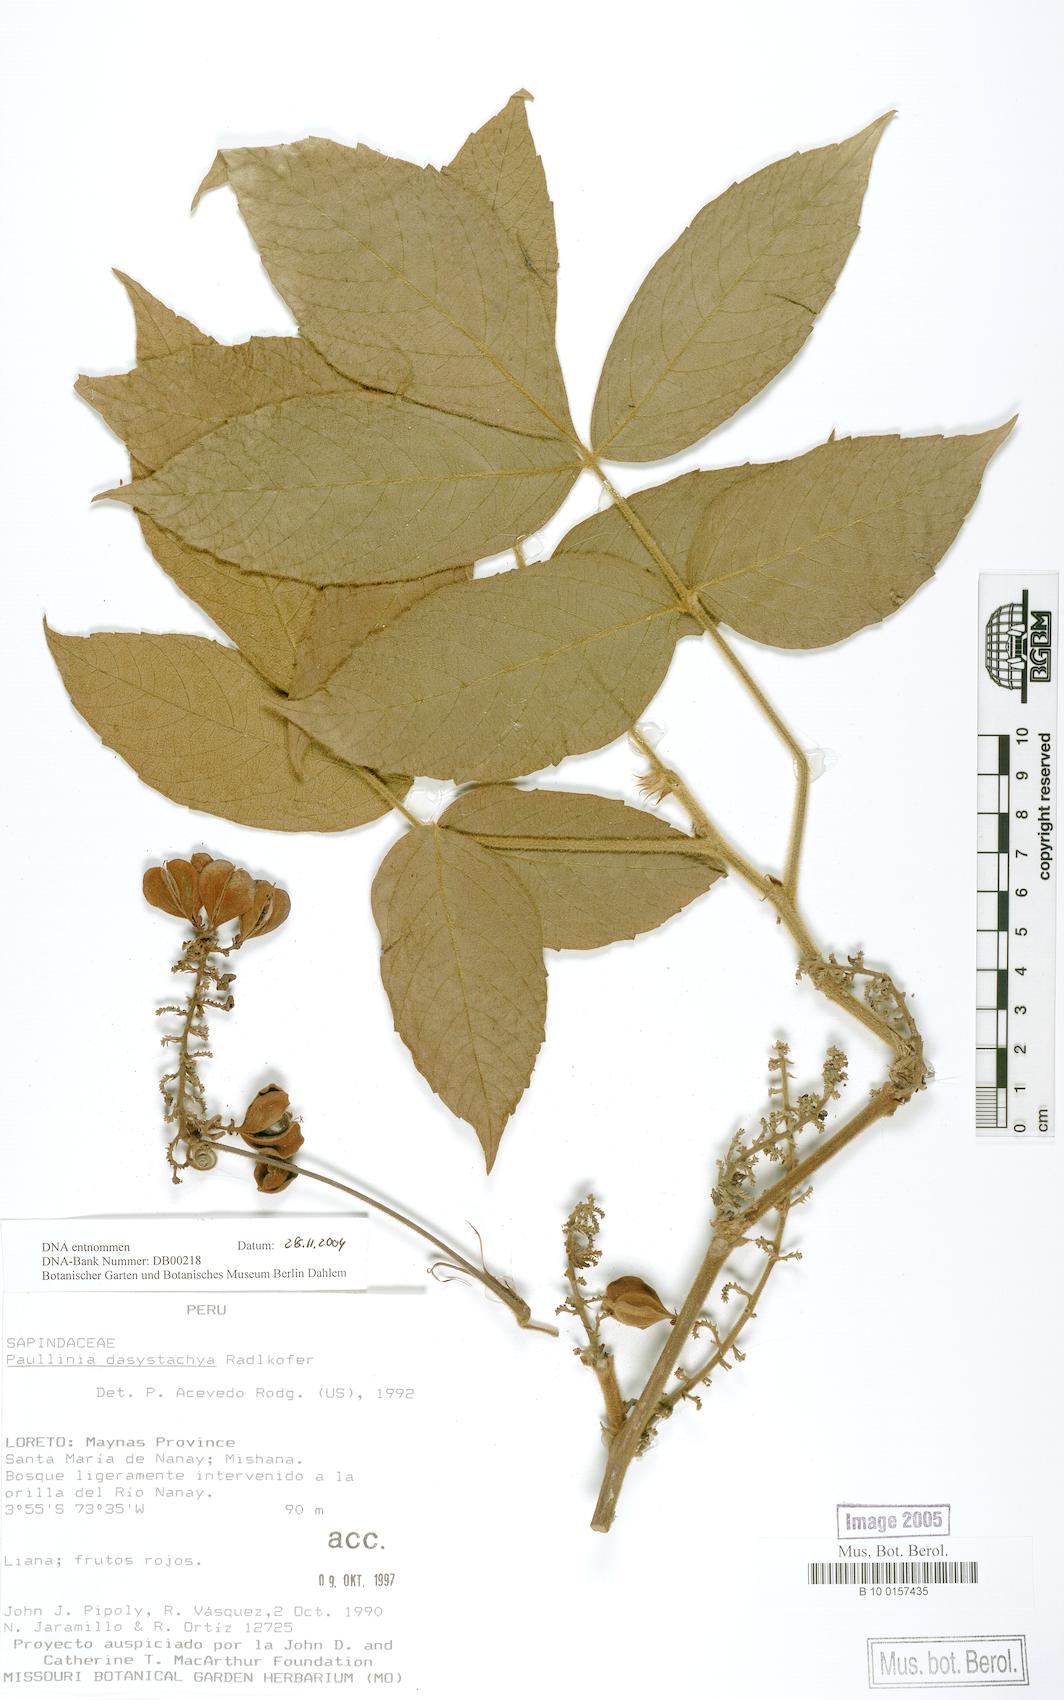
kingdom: Plantae
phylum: Tracheophyta
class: Magnoliopsida
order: Sapindales
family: Sapindaceae
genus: Paullinia
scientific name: Paullinia dasystachya
